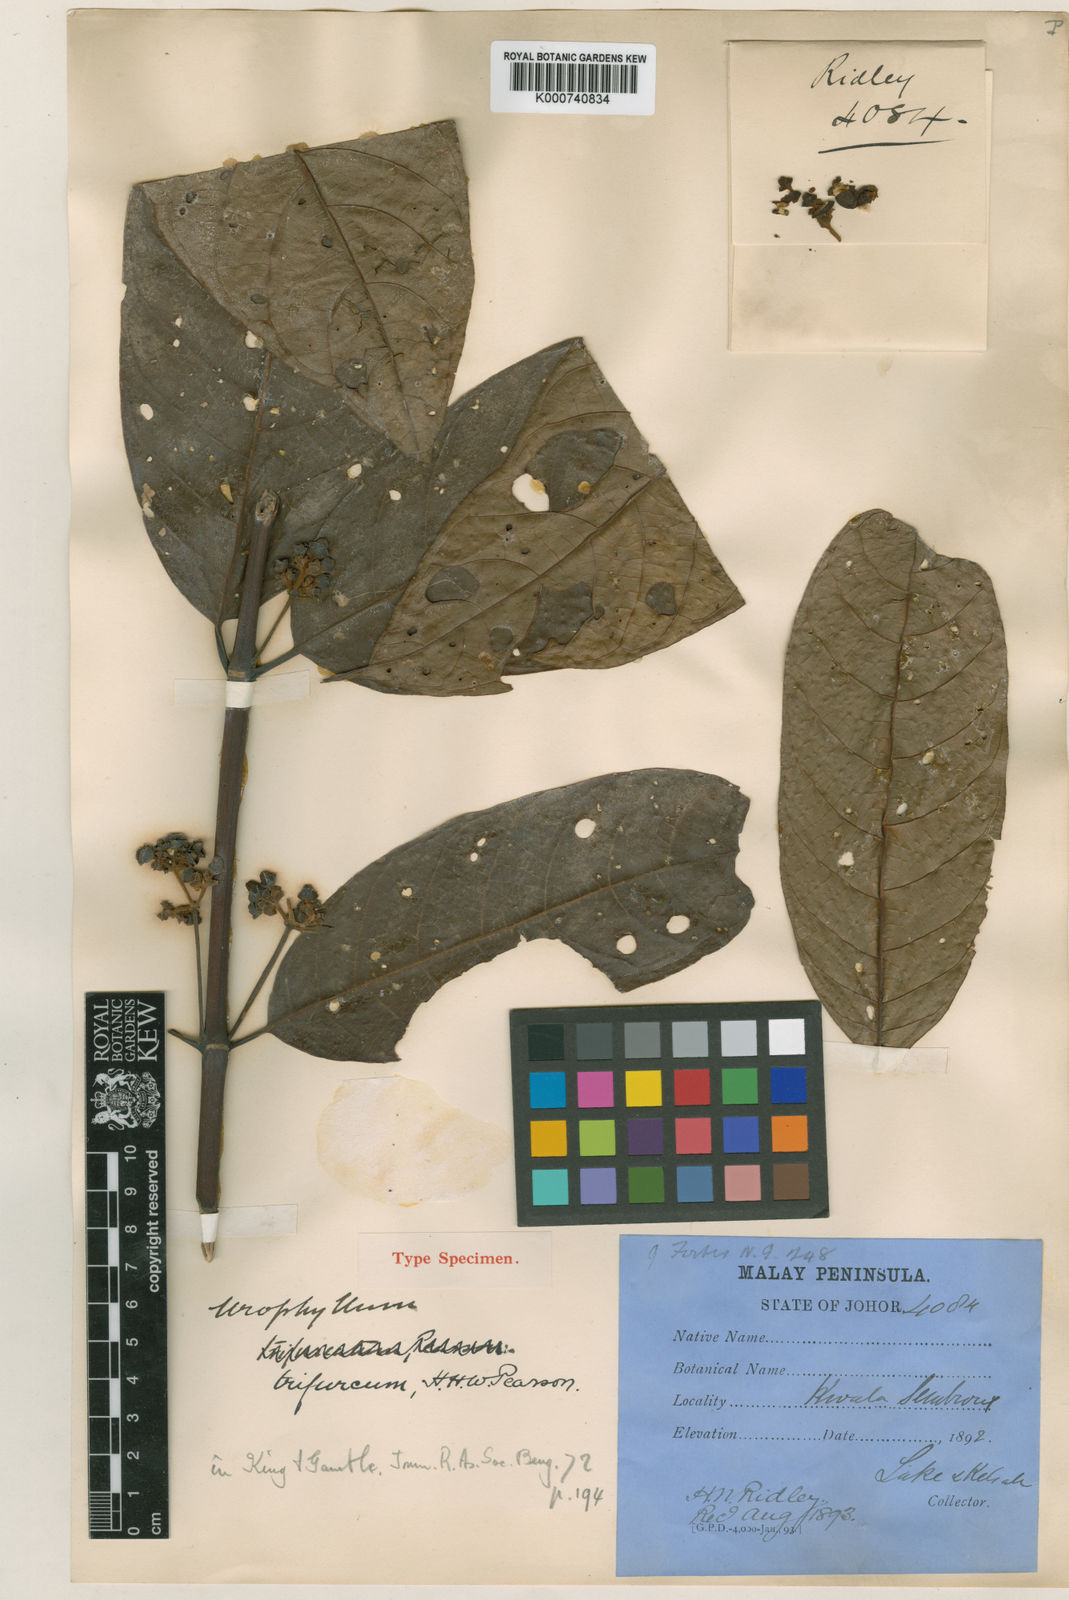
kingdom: Plantae
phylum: Tracheophyta
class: Magnoliopsida
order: Gentianales
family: Rubiaceae
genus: Urophyllum
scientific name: Urophyllum trifurcum
